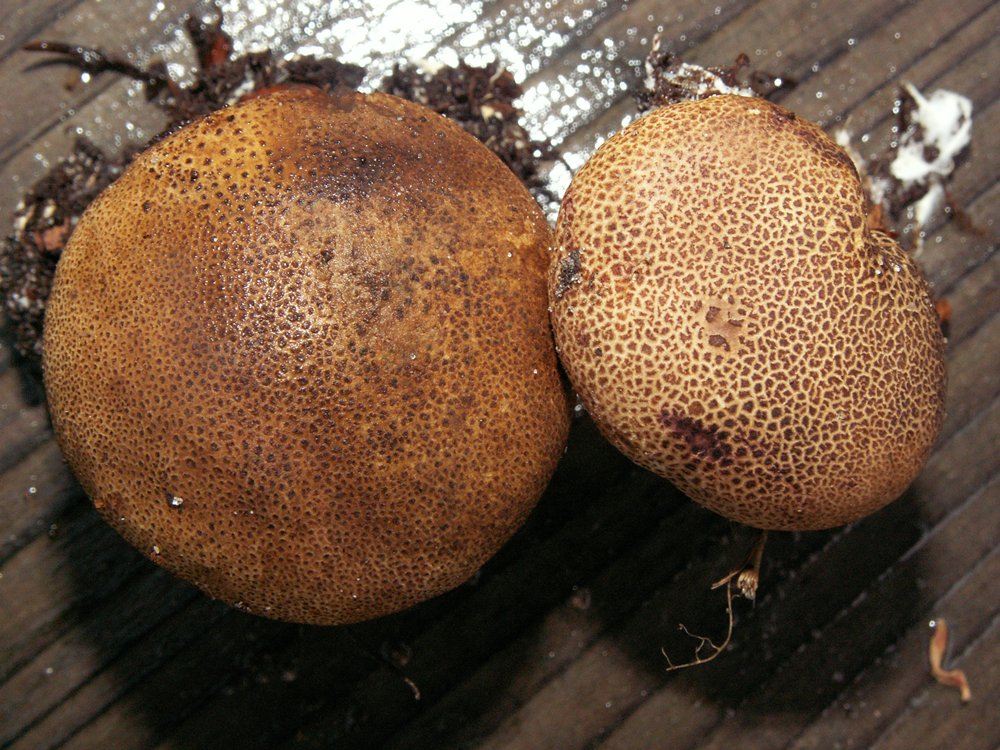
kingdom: Fungi
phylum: Basidiomycota
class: Agaricomycetes
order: Boletales
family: Sclerodermataceae
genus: Scleroderma
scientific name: Scleroderma areolatum
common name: plettet bruskbold
